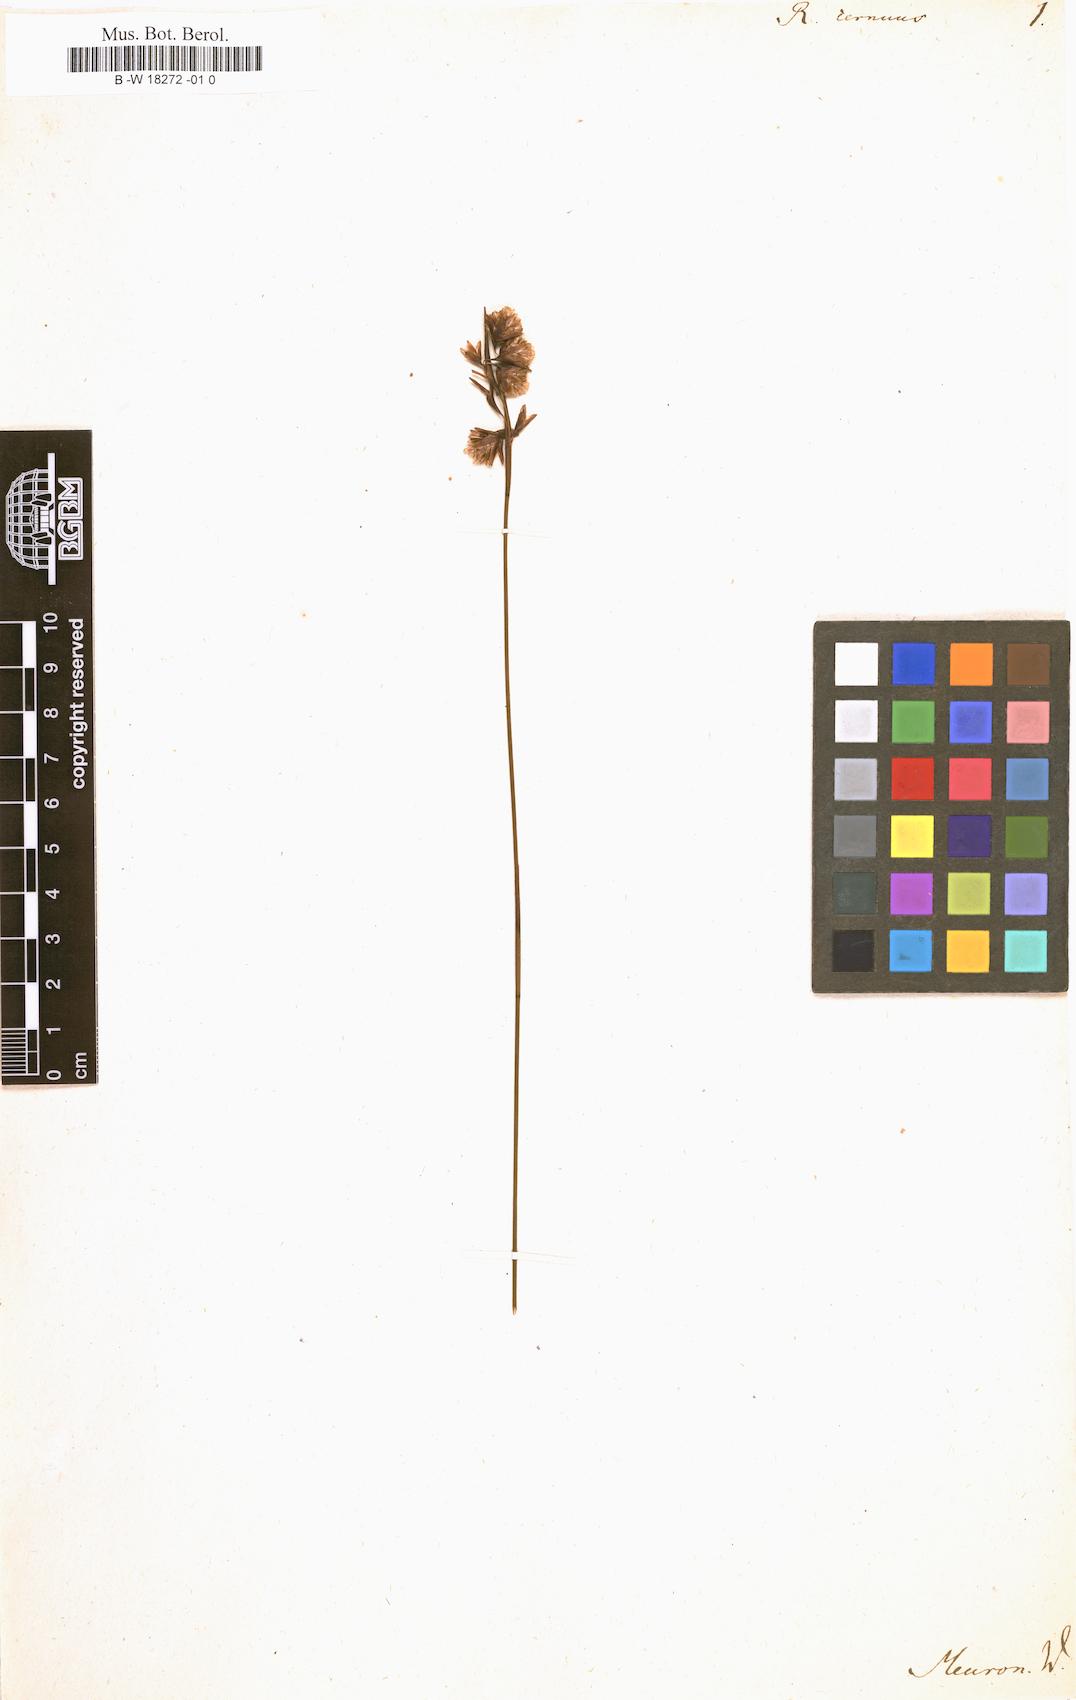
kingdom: Plantae
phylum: Tracheophyta
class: Liliopsida
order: Poales
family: Restionaceae
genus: Staberoha
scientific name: Staberoha cernua
